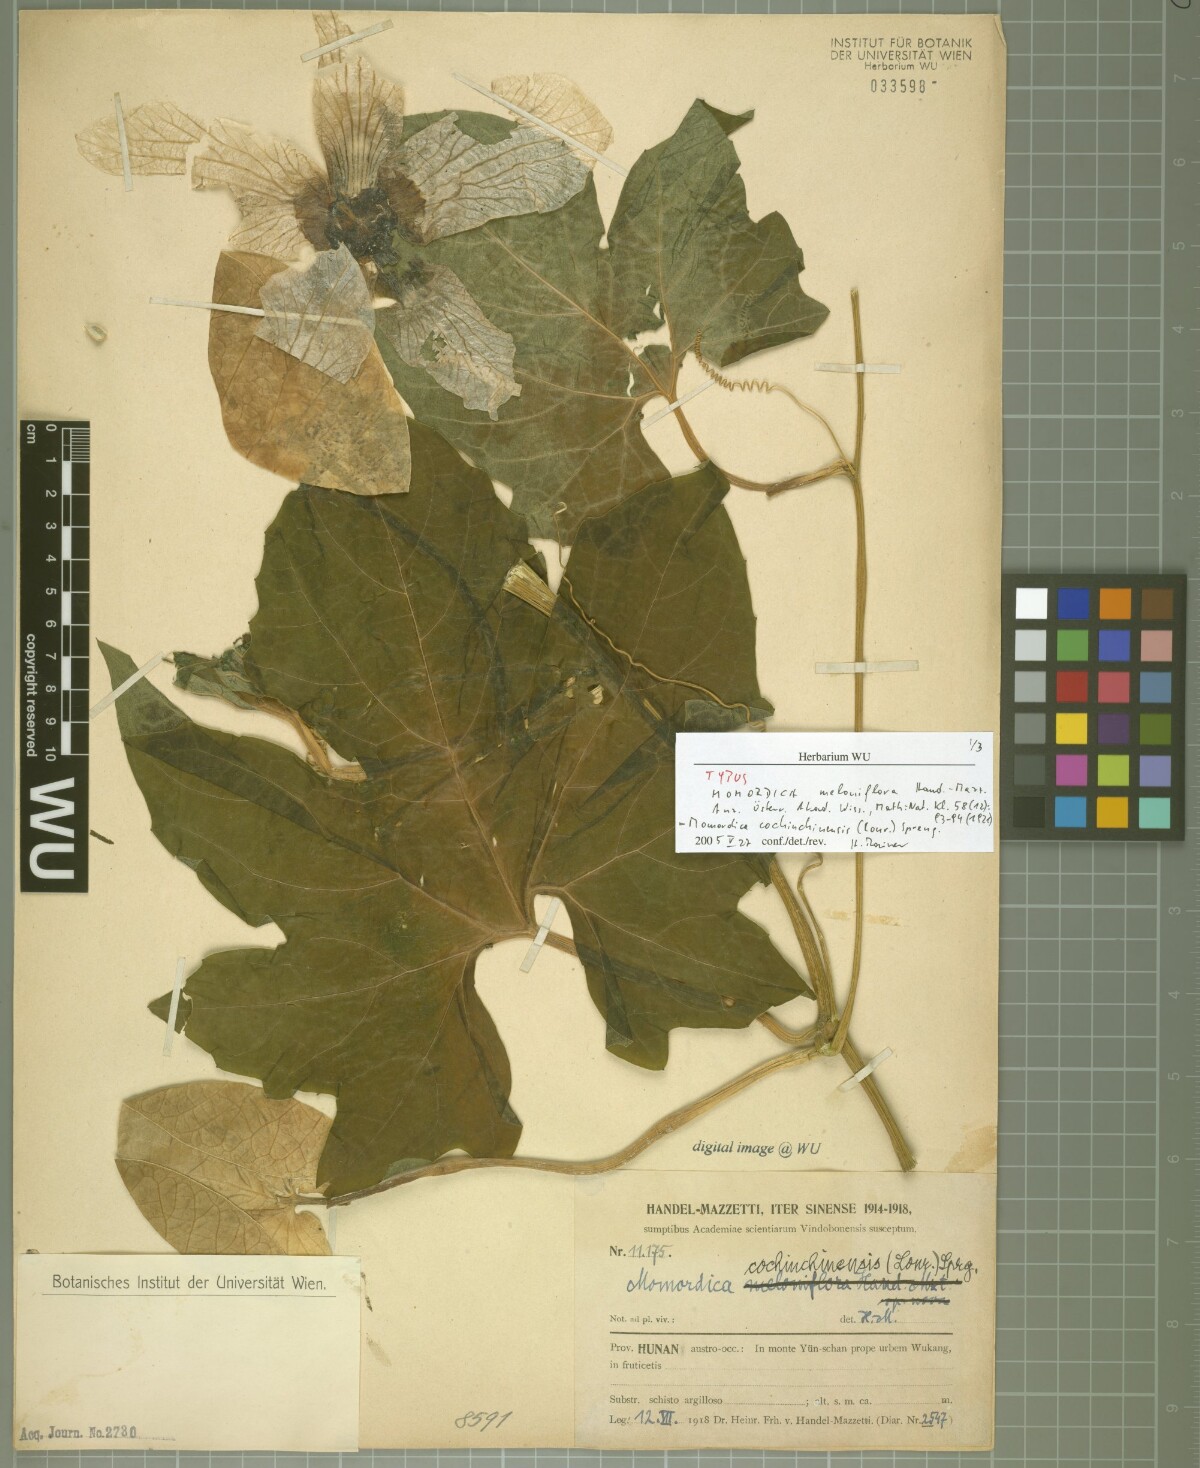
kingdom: Plantae
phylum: Tracheophyta
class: Magnoliopsida
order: Cucurbitales
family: Cucurbitaceae
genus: Momordica
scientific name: Momordica cochinchinensis
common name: Chinese bitter-cucumber
